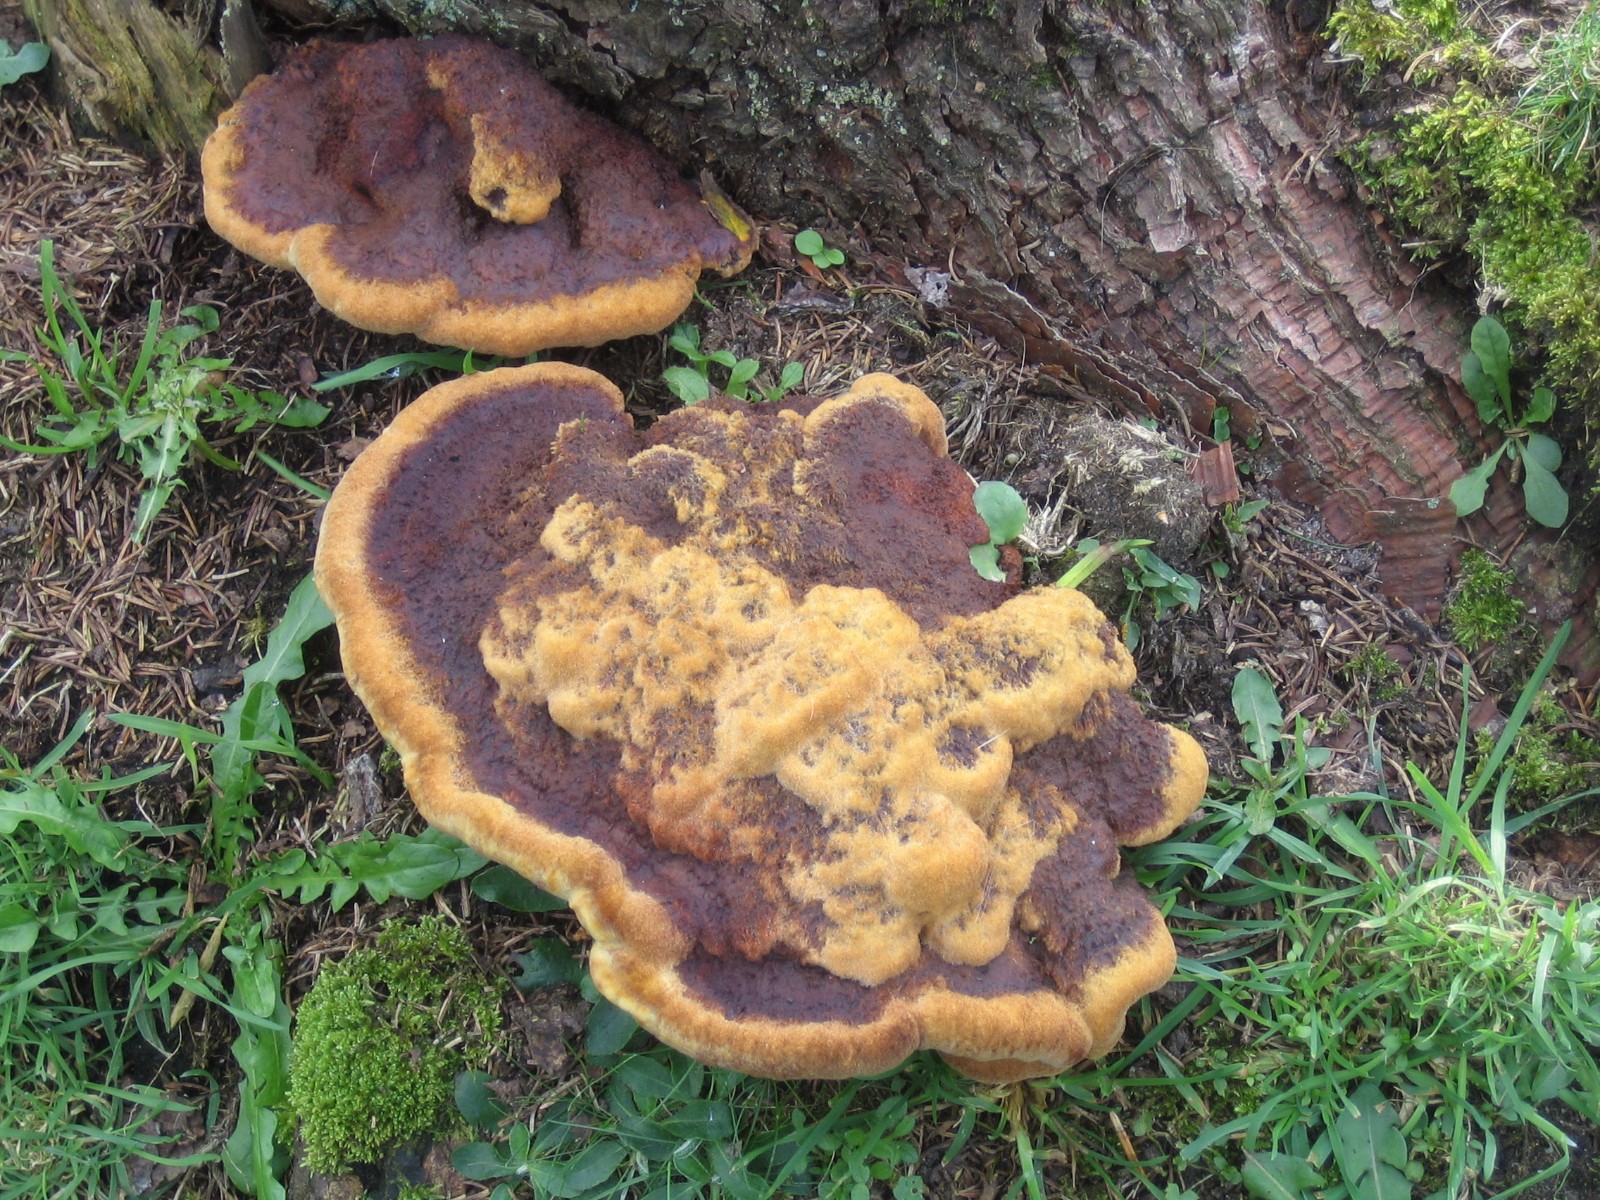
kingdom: Fungi
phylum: Basidiomycota
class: Agaricomycetes
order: Polyporales
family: Laetiporaceae
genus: Phaeolus
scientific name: Phaeolus schweinitzii
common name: brunporesvamp
